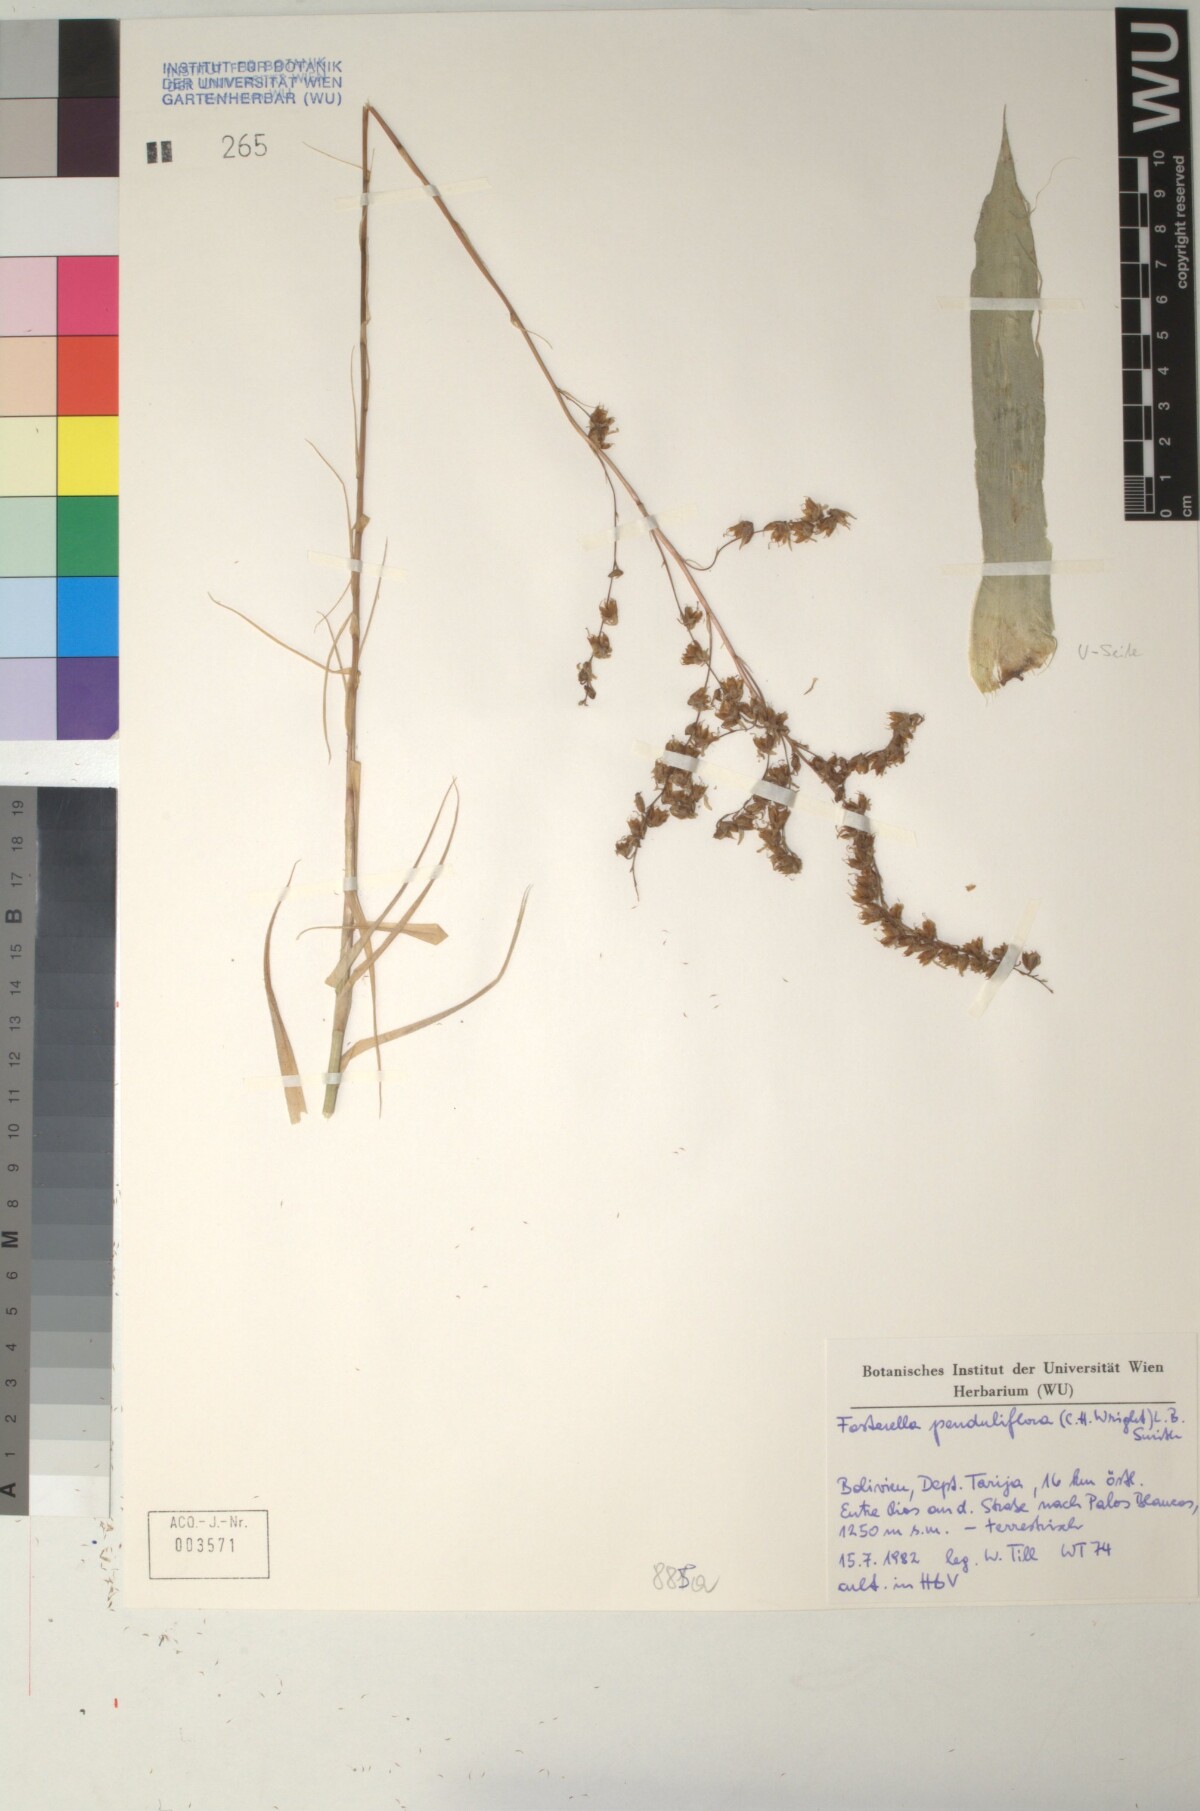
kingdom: Plantae
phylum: Tracheophyta
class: Liliopsida
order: Poales
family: Bromeliaceae
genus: Fosterella
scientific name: Fosterella penduliflora
